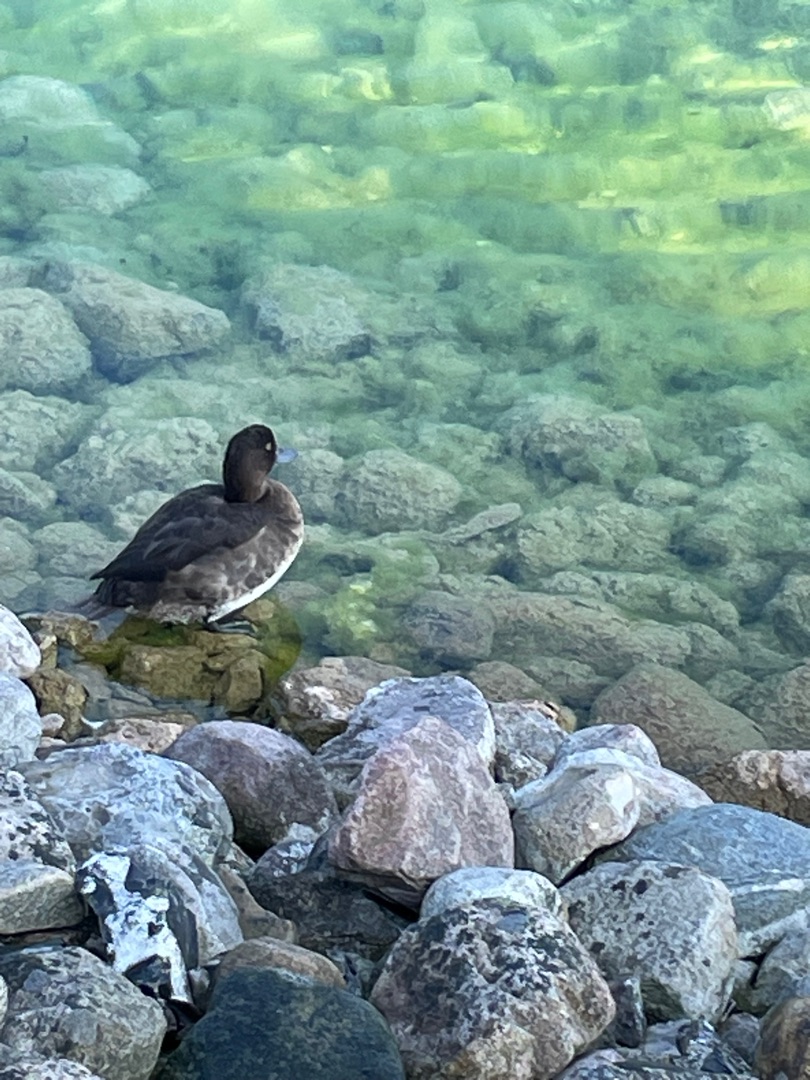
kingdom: Animalia
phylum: Chordata
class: Aves
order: Anseriformes
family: Anatidae
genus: Aythya
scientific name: Aythya fuligula
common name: Troldand
